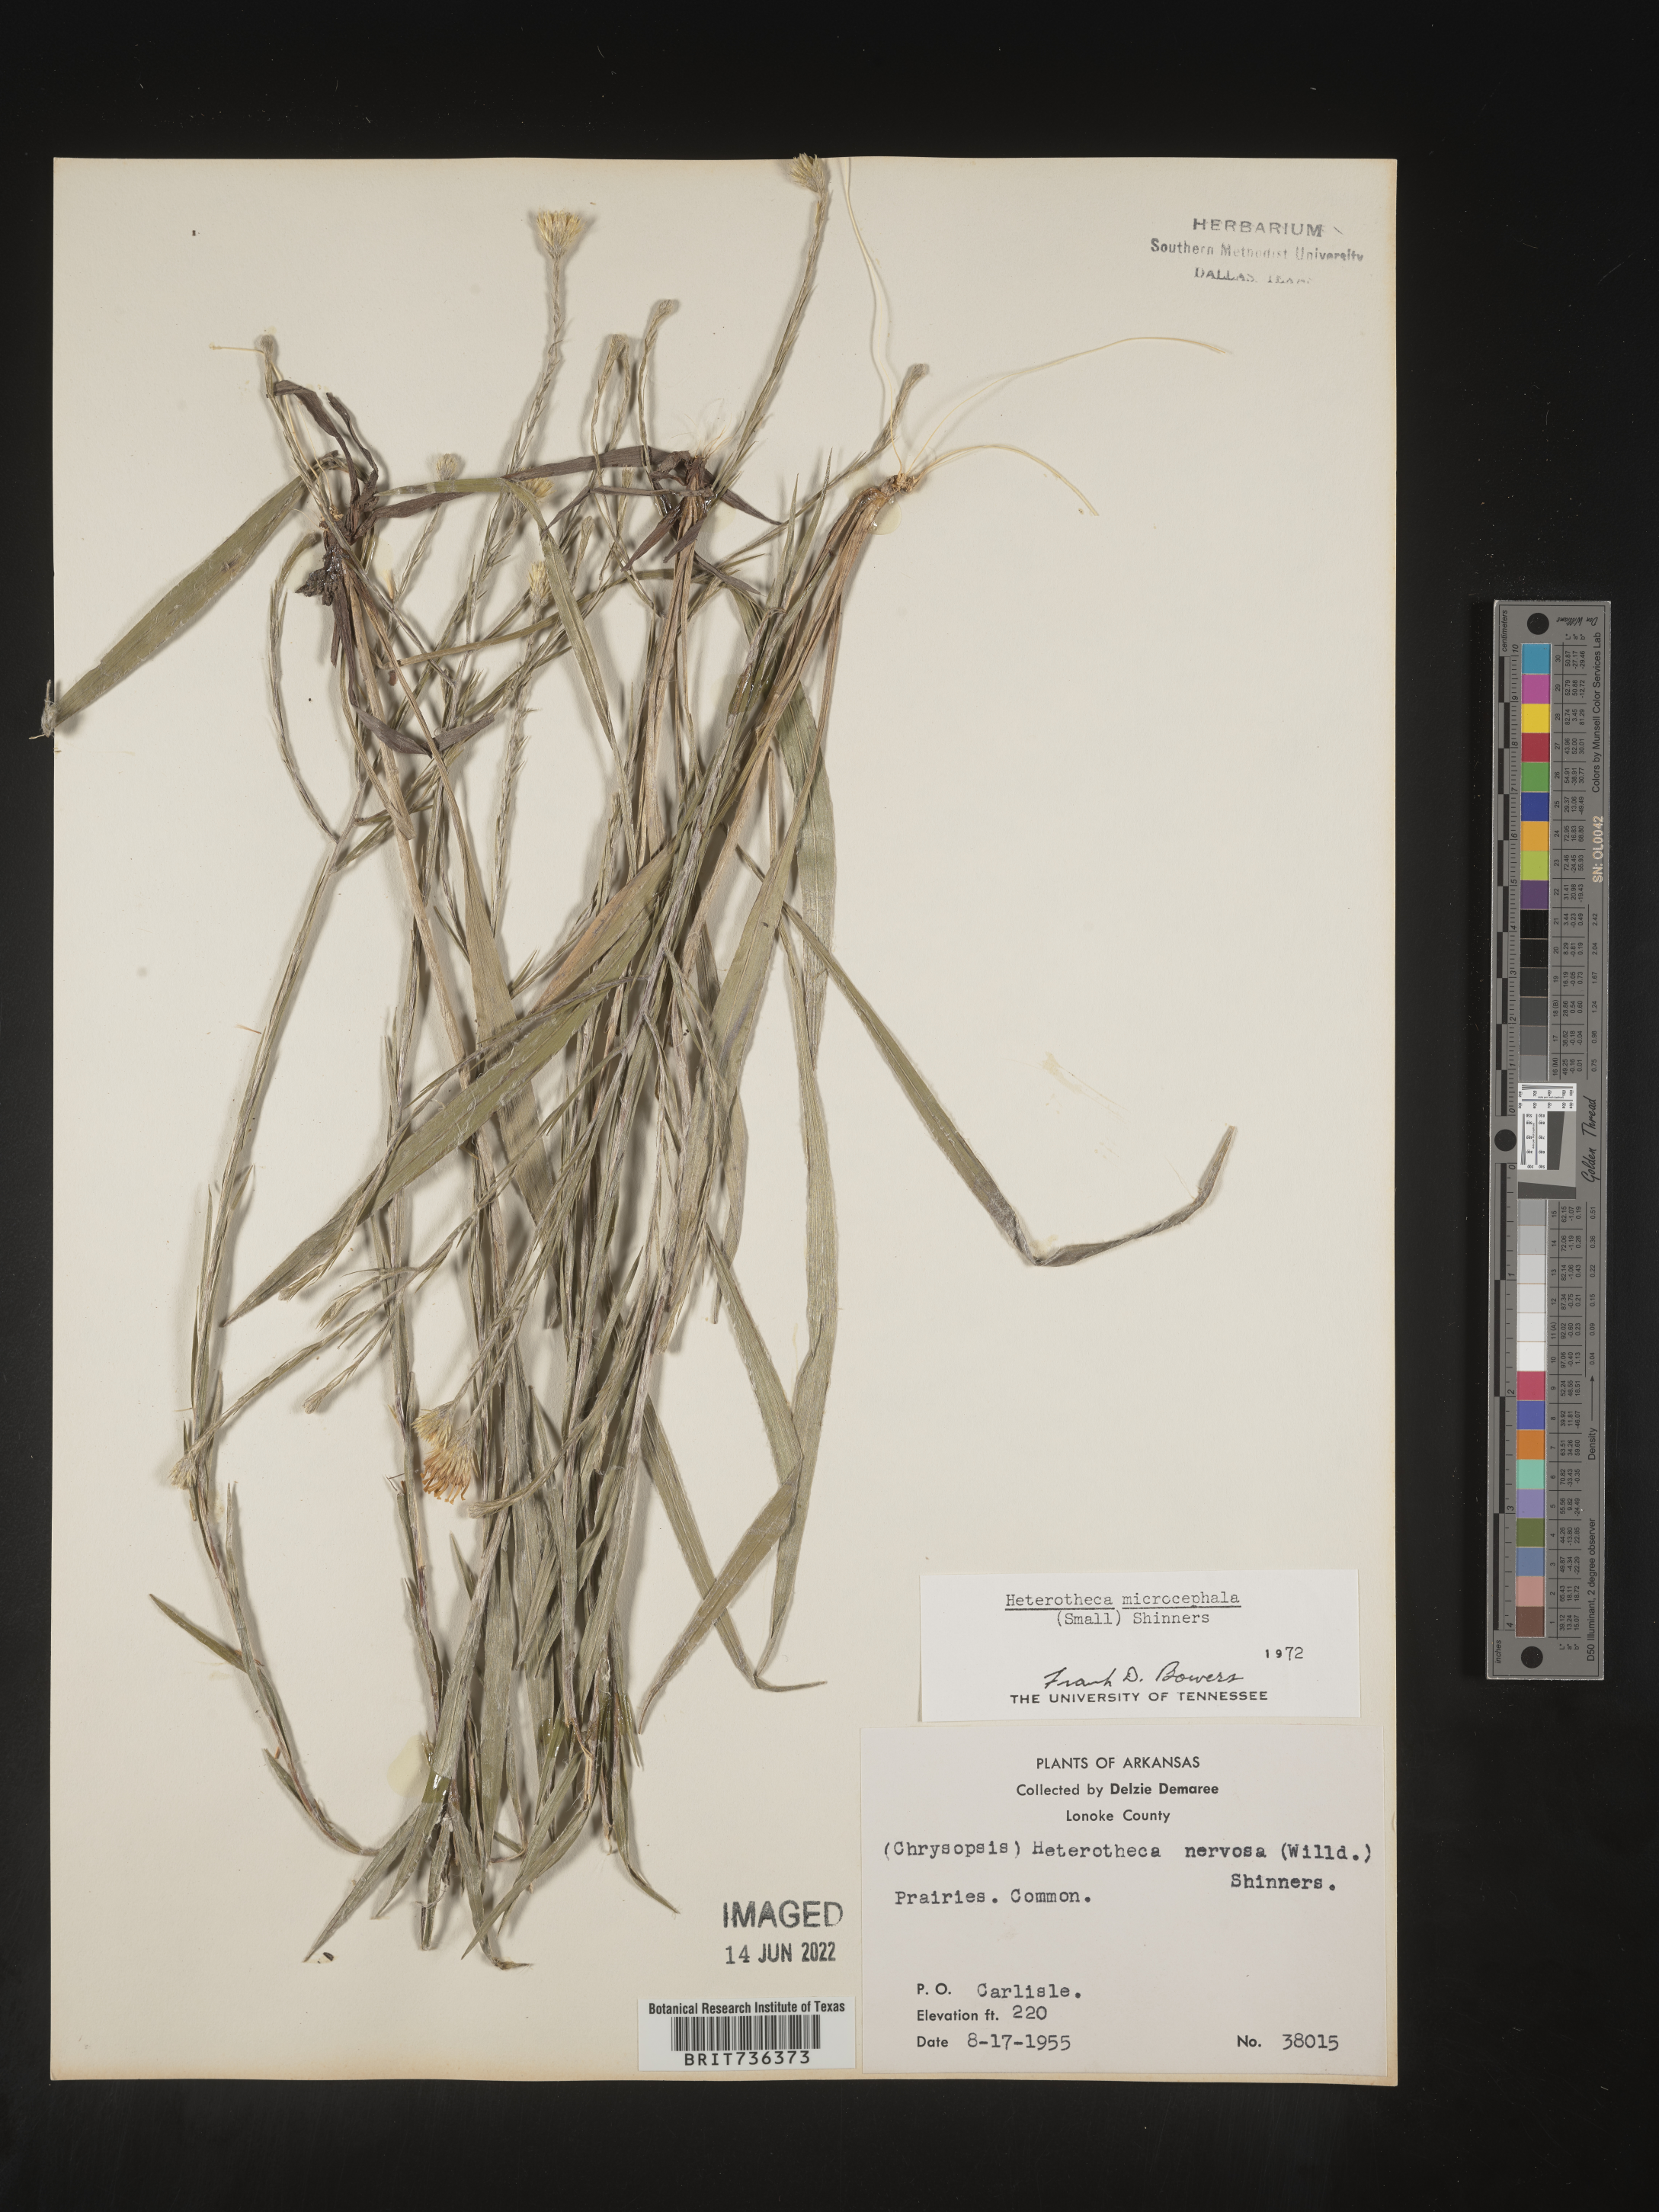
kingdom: Plantae
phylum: Tracheophyta
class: Magnoliopsida
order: Asterales
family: Asteraceae
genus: Pityopsis
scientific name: Pityopsis tenuifolia
